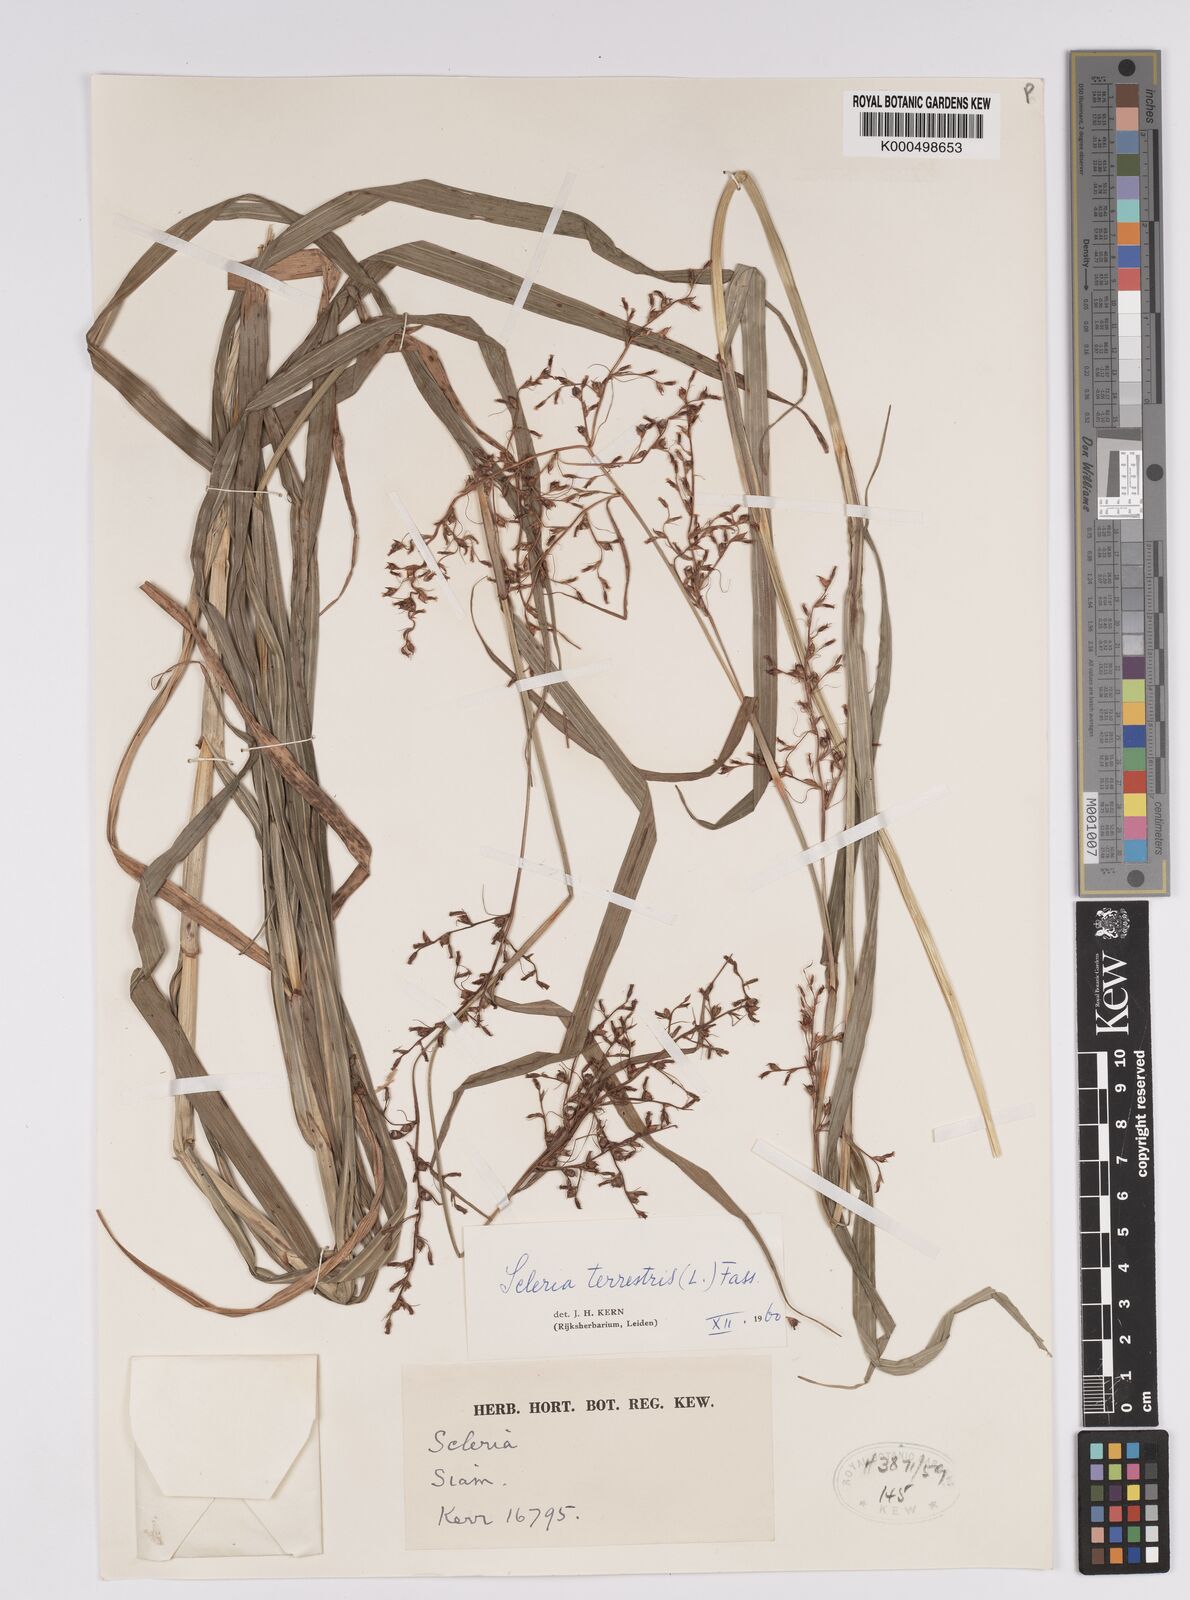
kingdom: Plantae
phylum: Tracheophyta
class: Liliopsida
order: Poales
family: Cyperaceae
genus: Scleria
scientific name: Scleria terrestris
